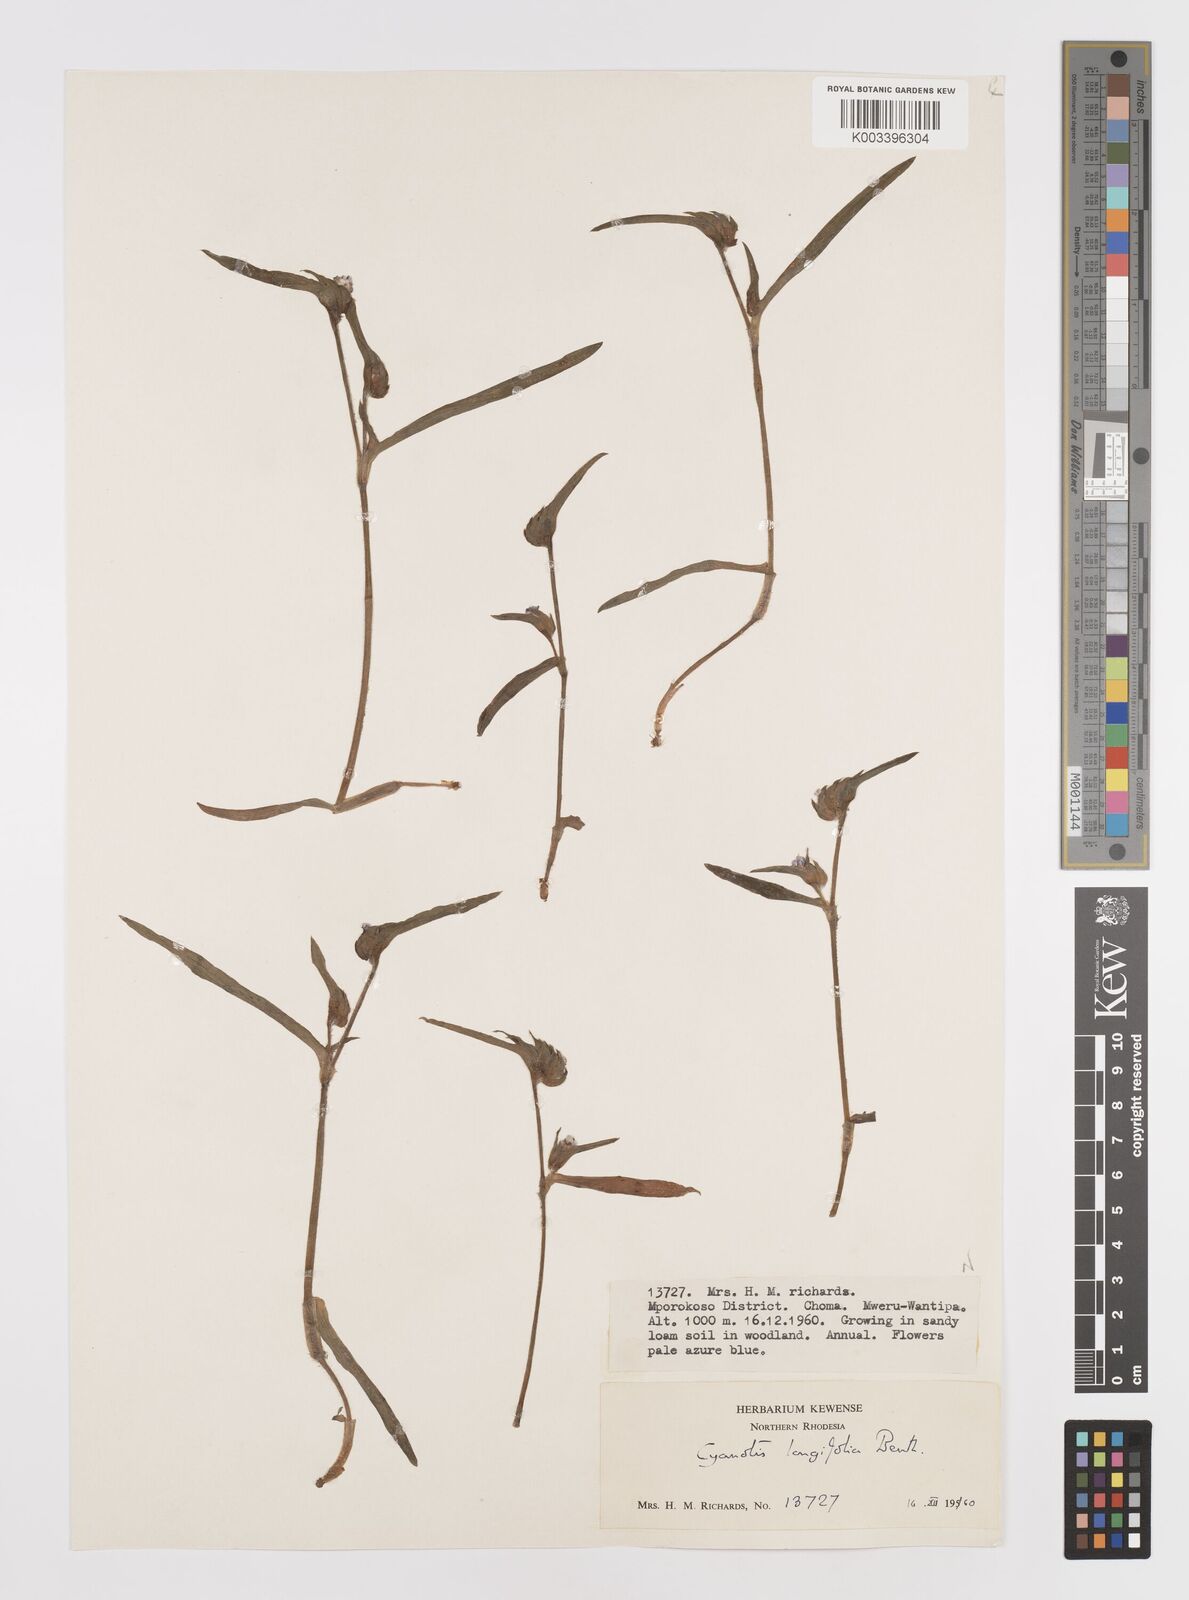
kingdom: Plantae
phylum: Tracheophyta
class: Liliopsida
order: Commelinales
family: Commelinaceae
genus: Cyanotis
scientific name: Cyanotis longifolia
